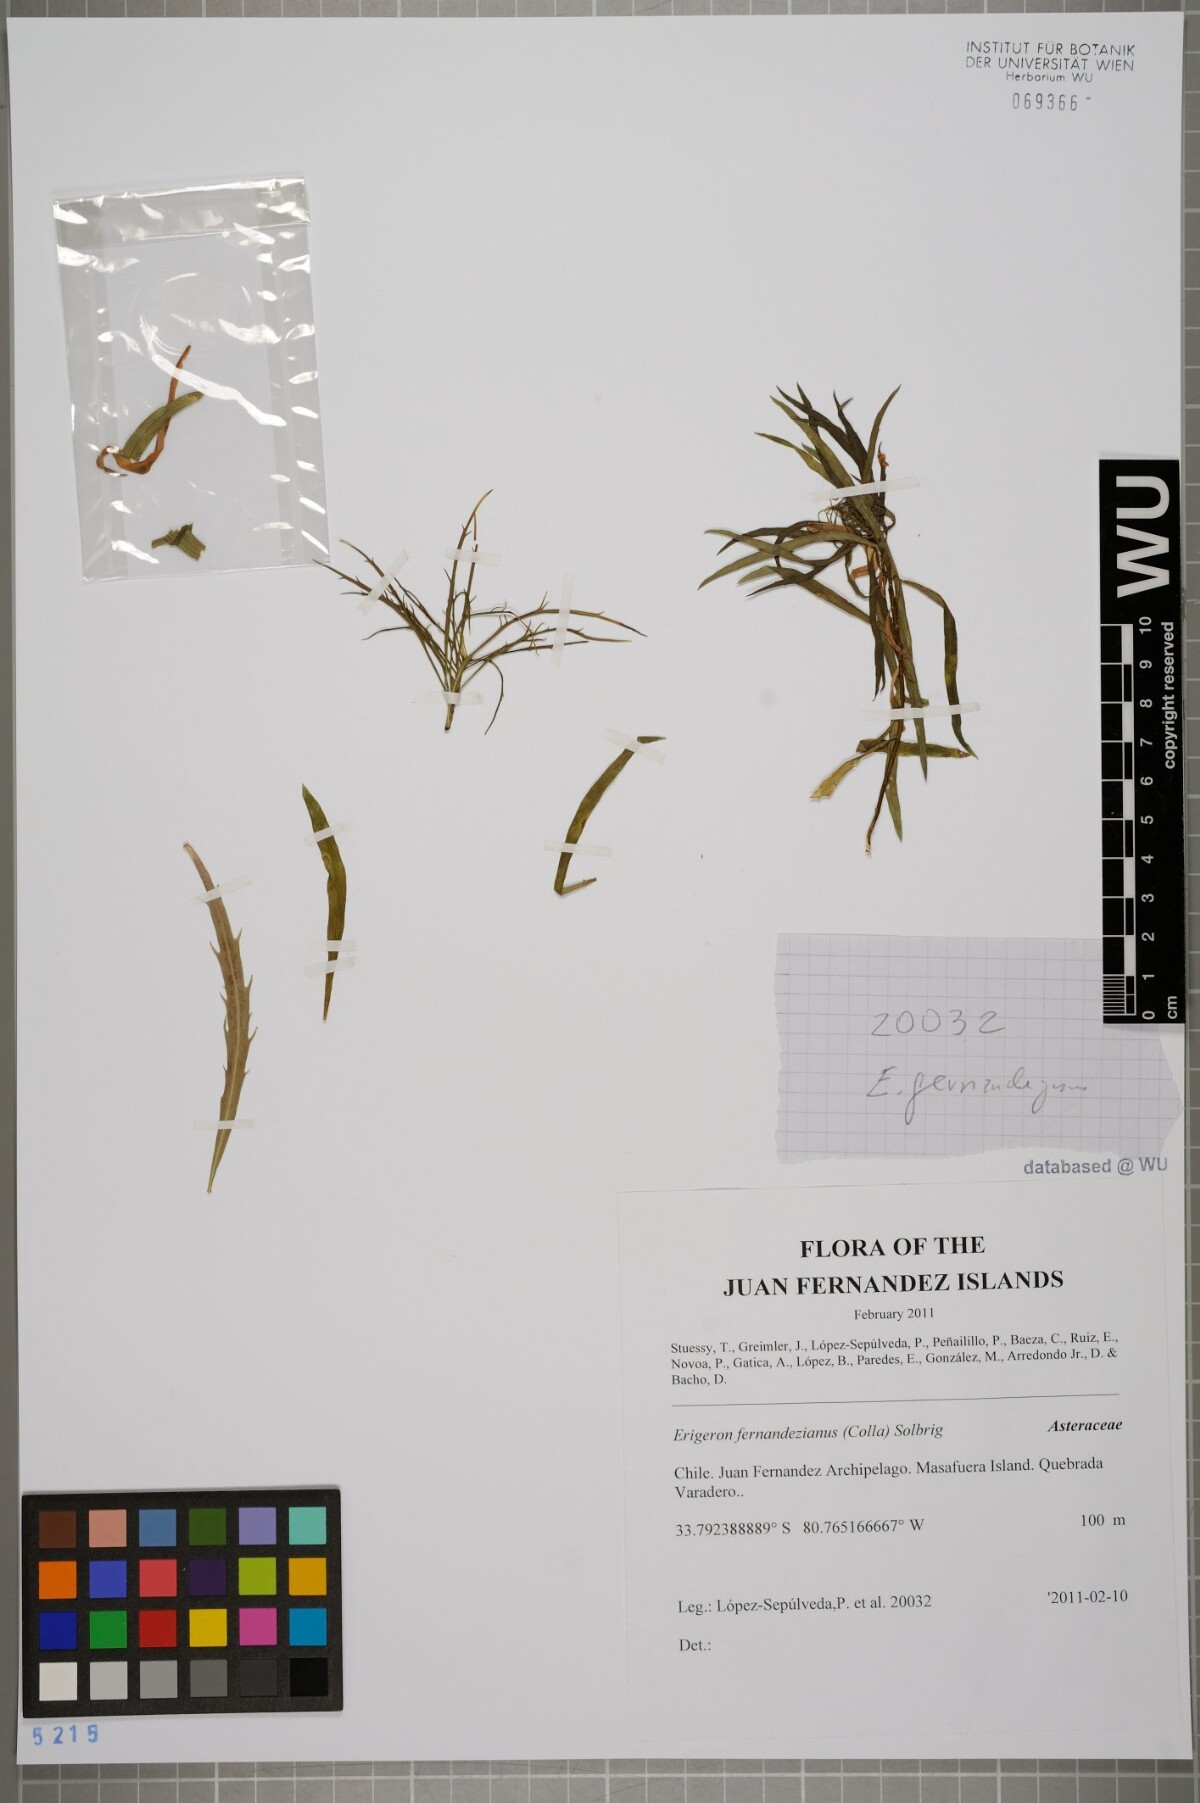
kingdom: Plantae
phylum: Tracheophyta
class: Magnoliopsida
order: Asterales
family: Asteraceae
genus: Erigeron
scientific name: Erigeron fernandezianus
